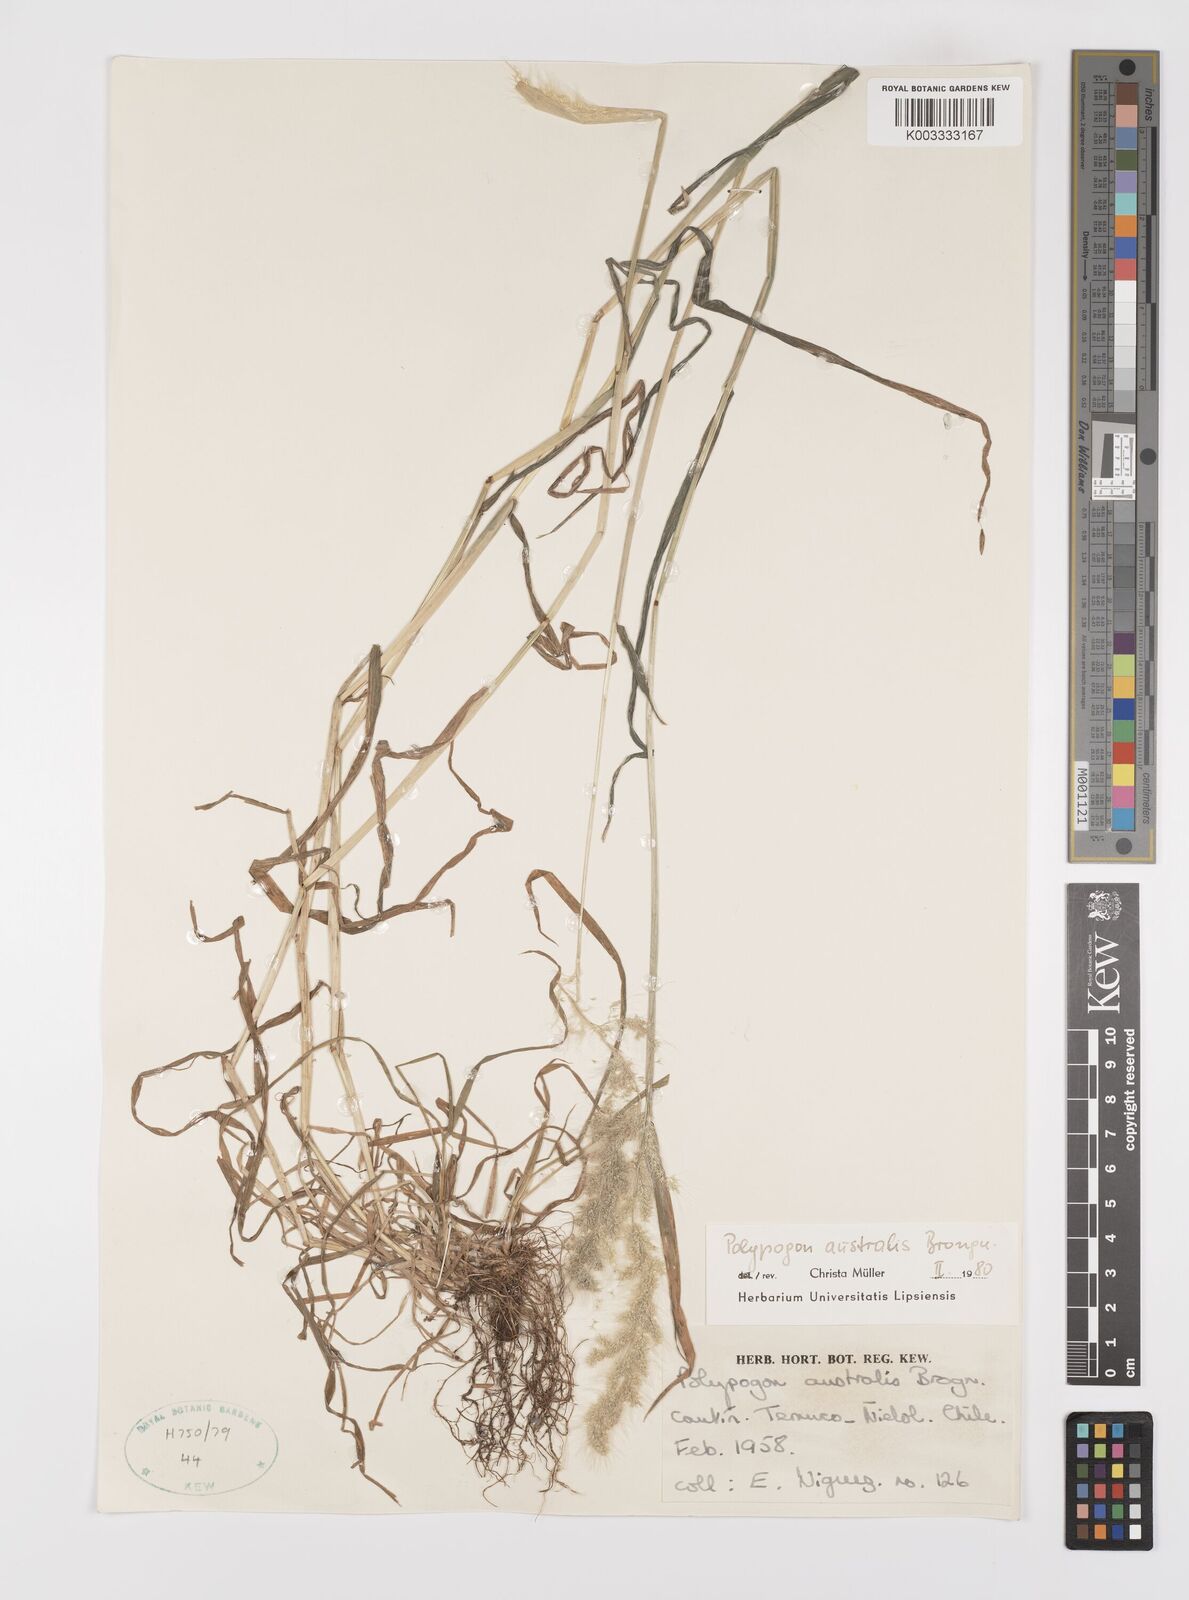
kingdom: Plantae
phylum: Tracheophyta
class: Liliopsida
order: Poales
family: Poaceae
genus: Polypogon
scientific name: Polypogon australis
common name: Chilean rabbitsfoot grass
